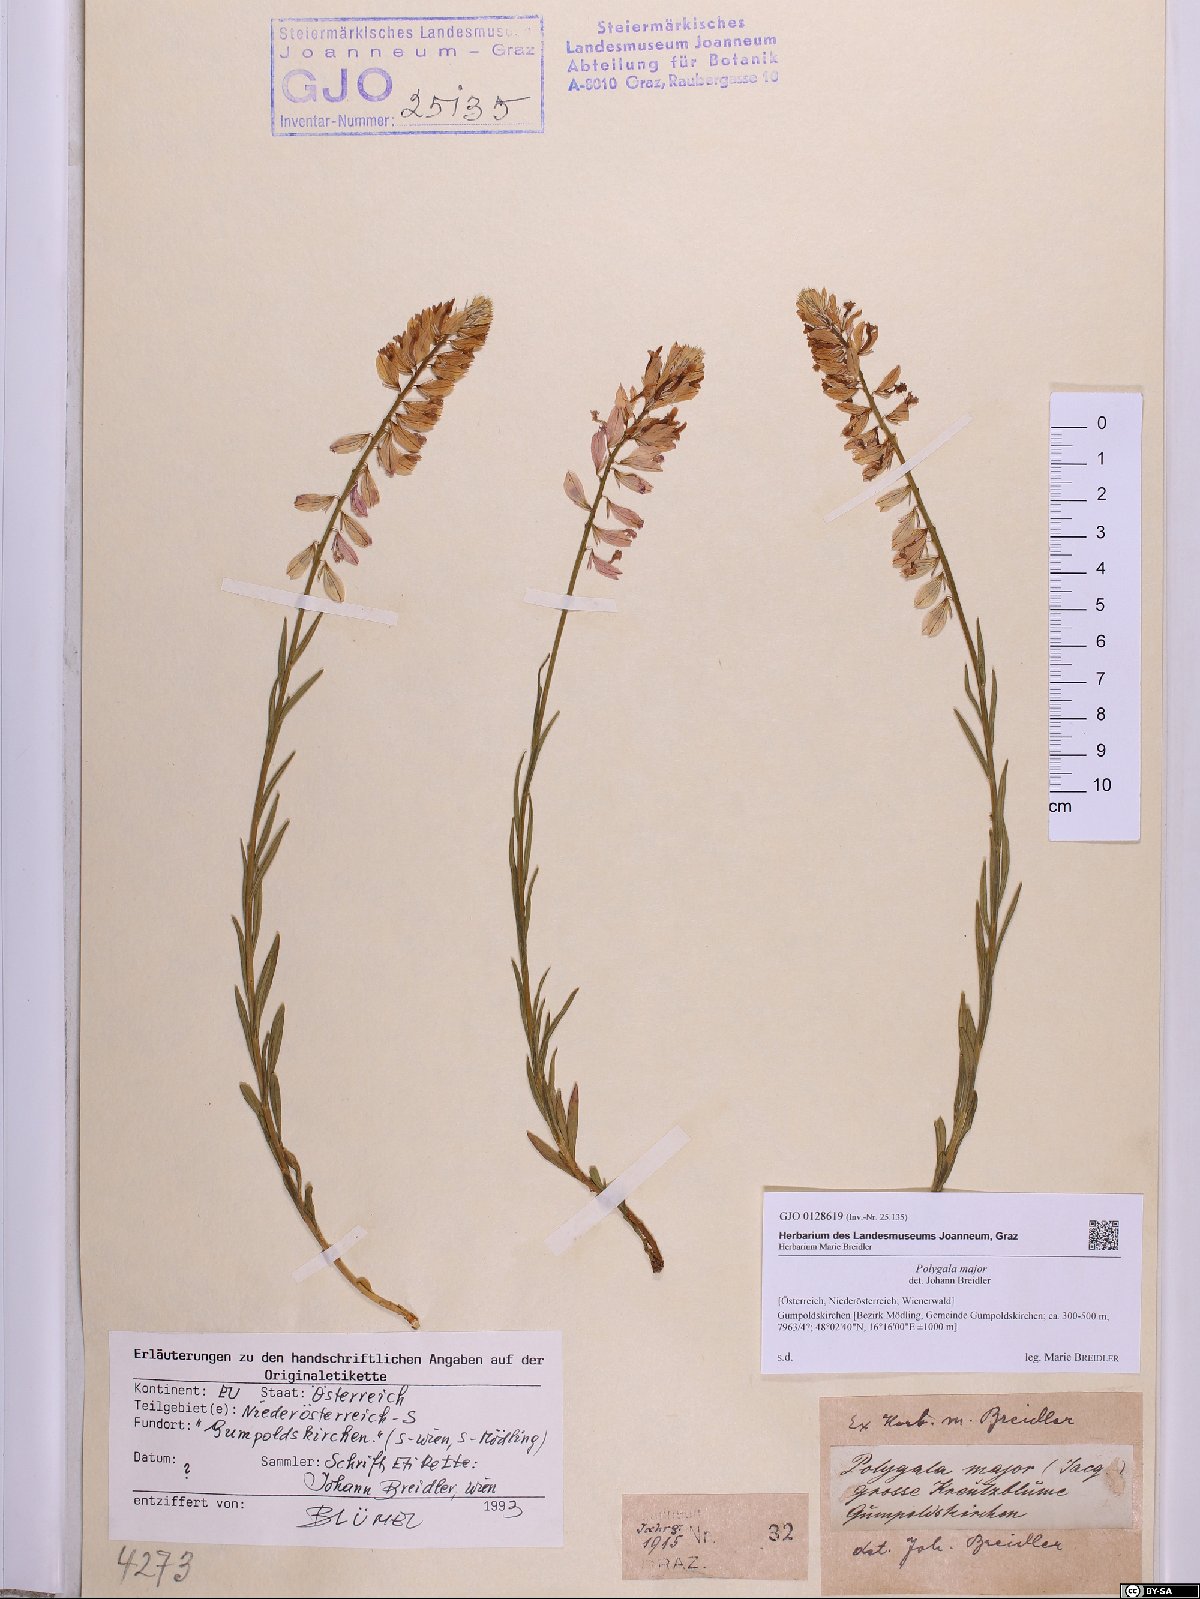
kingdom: Plantae
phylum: Tracheophyta
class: Magnoliopsida
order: Fabales
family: Polygalaceae
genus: Polygala
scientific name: Polygala major
